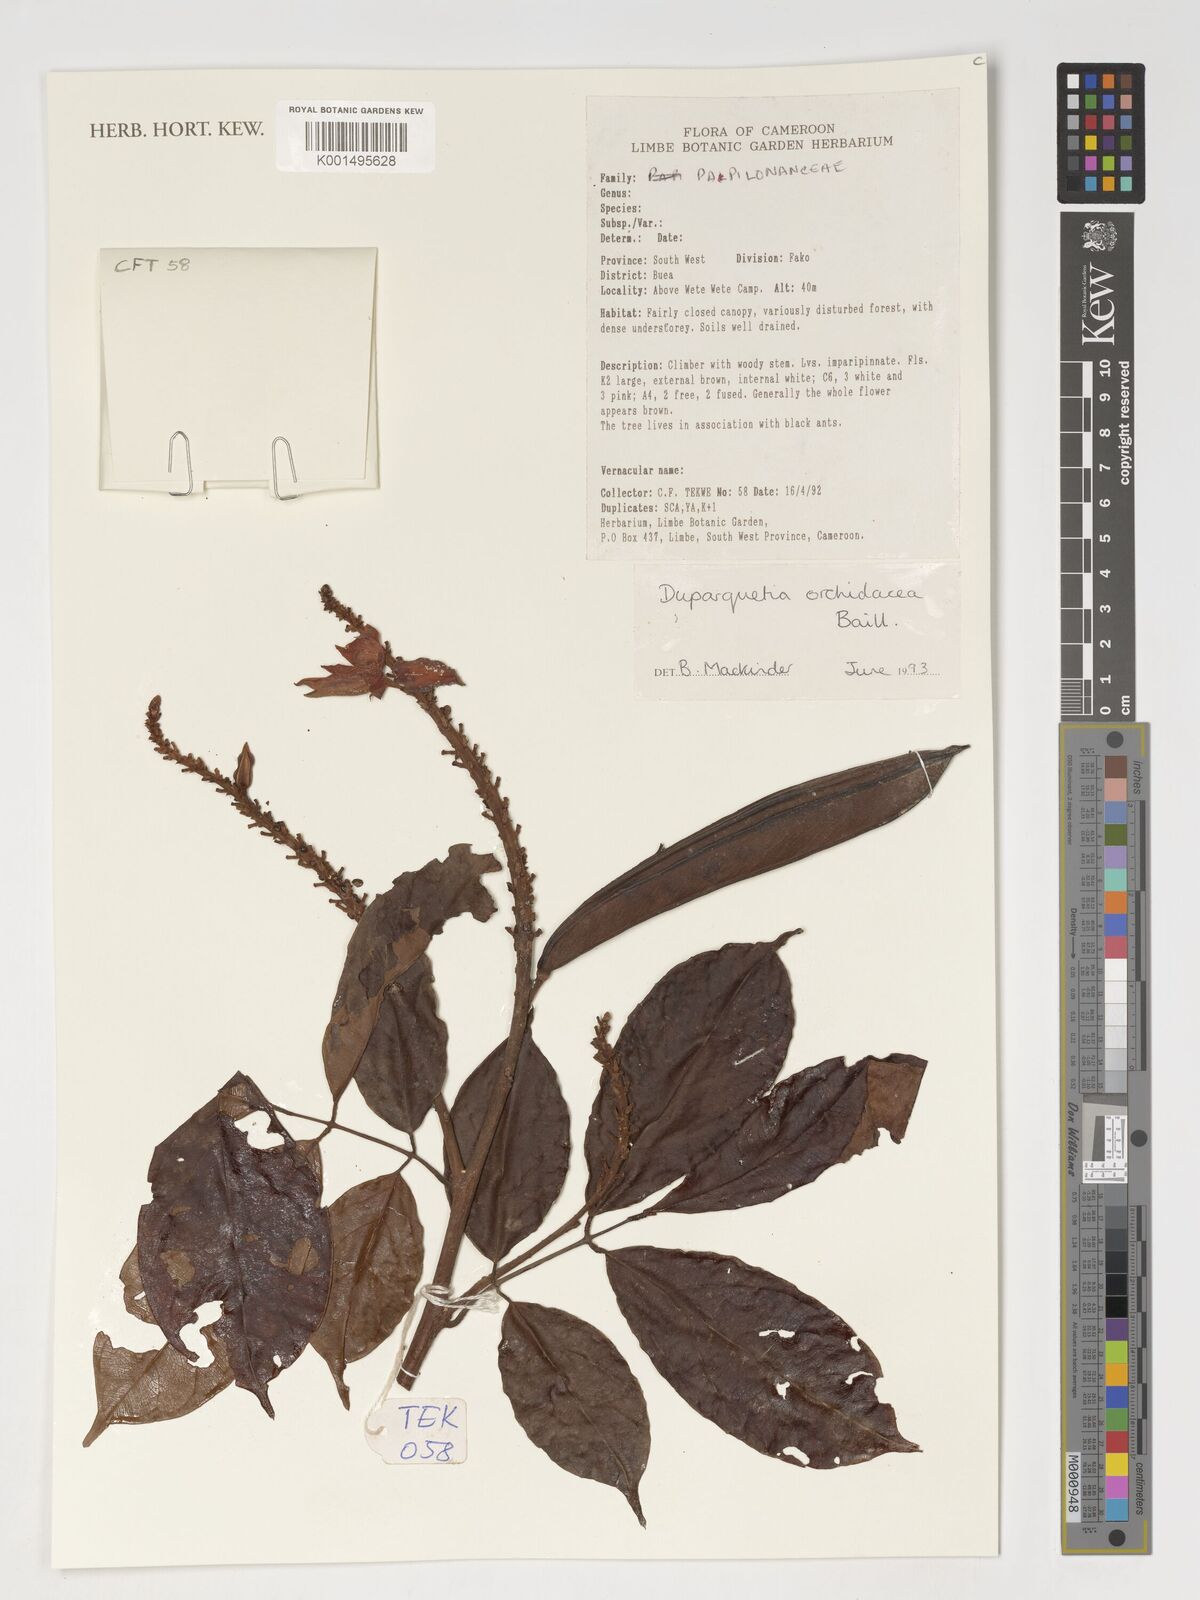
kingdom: Plantae
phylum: Tracheophyta
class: Magnoliopsida
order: Fabales
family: Fabaceae
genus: Duparquetia
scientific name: Duparquetia orchidacea
